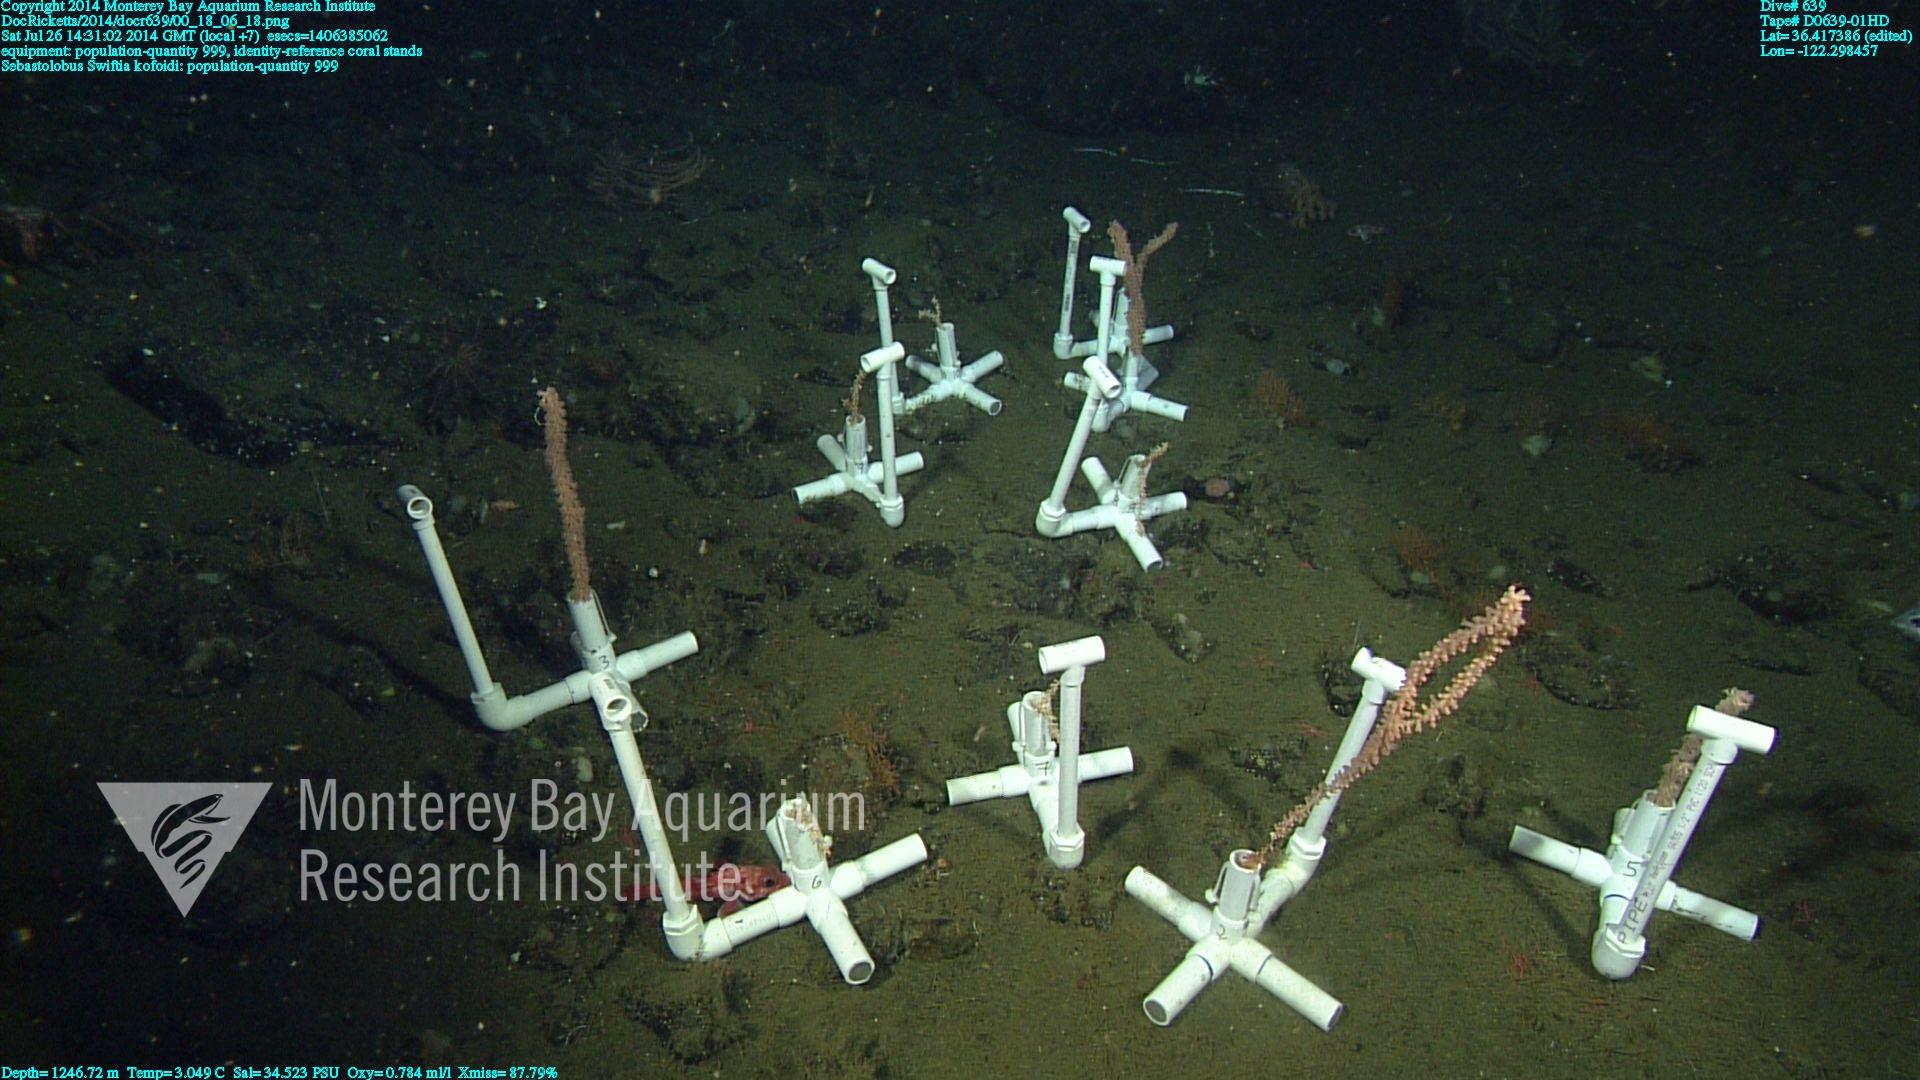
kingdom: Animalia
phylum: Cnidaria
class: Anthozoa
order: Malacalcyonacea
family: Gorgoniidae
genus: Callistephanus
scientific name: Callistephanus kofoidi
